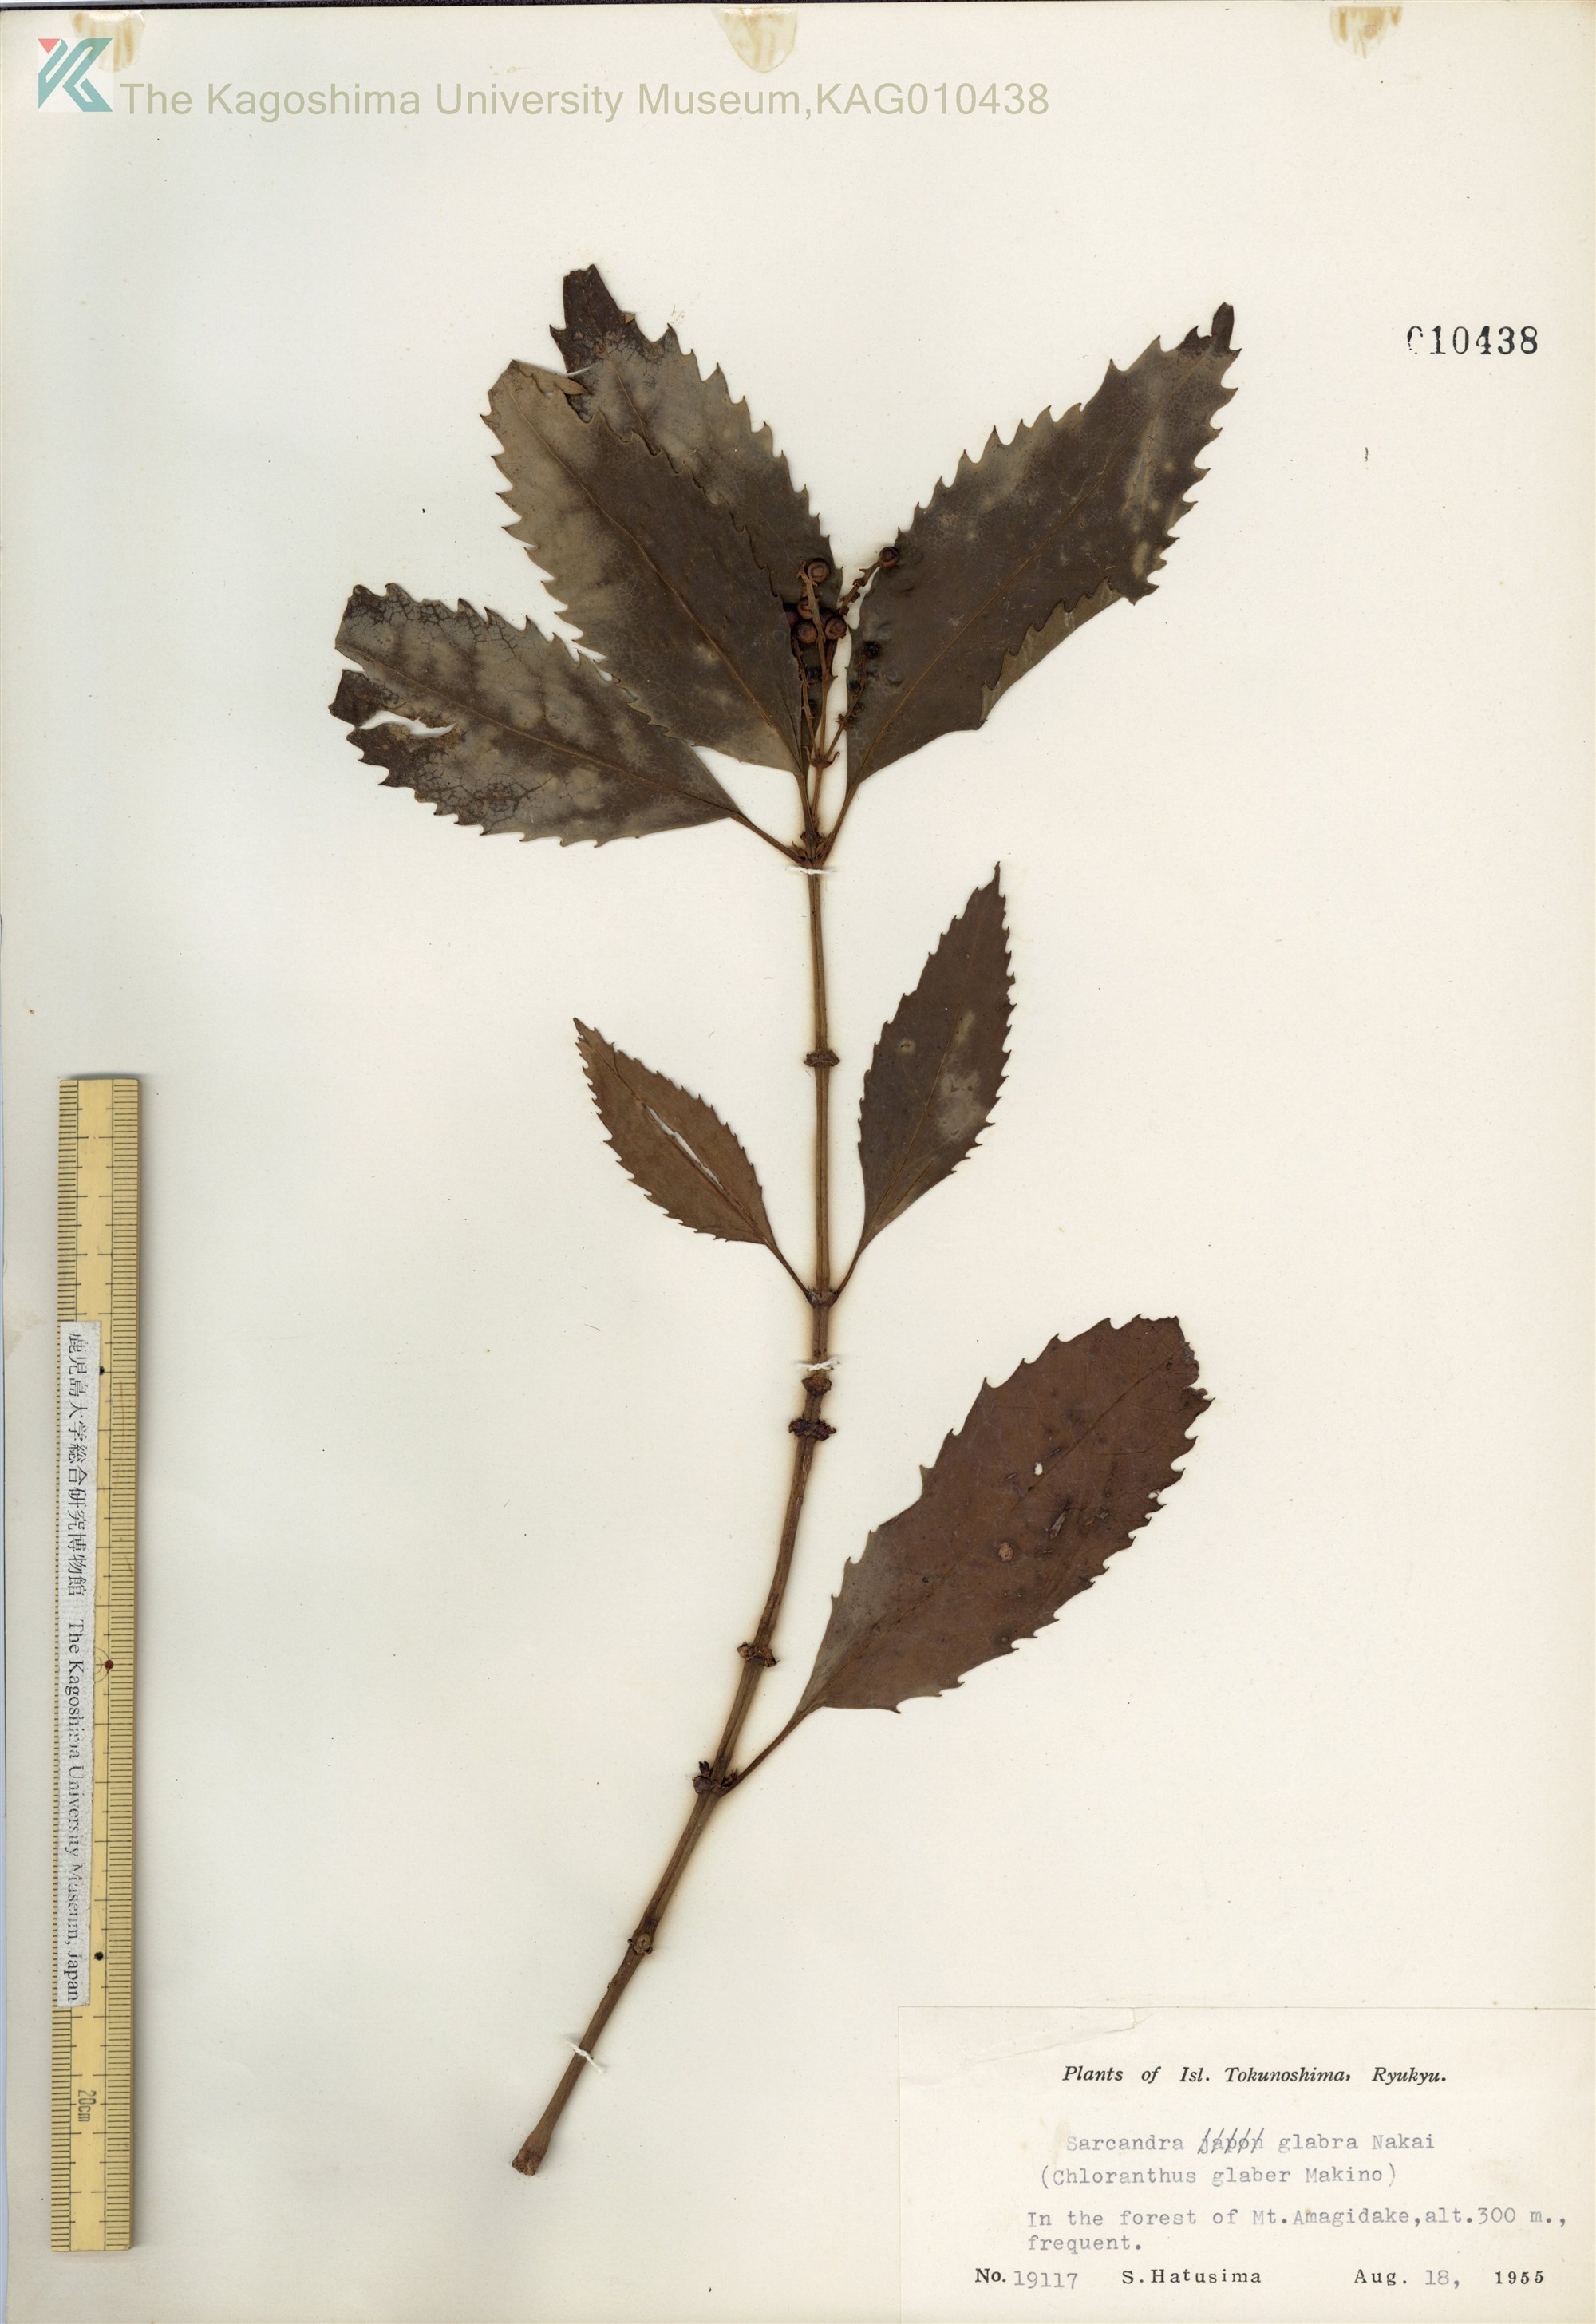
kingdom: Plantae
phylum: Tracheophyta
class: Magnoliopsida
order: Chloranthales
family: Chloranthaceae
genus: Sarcandra
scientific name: Sarcandra glabra
